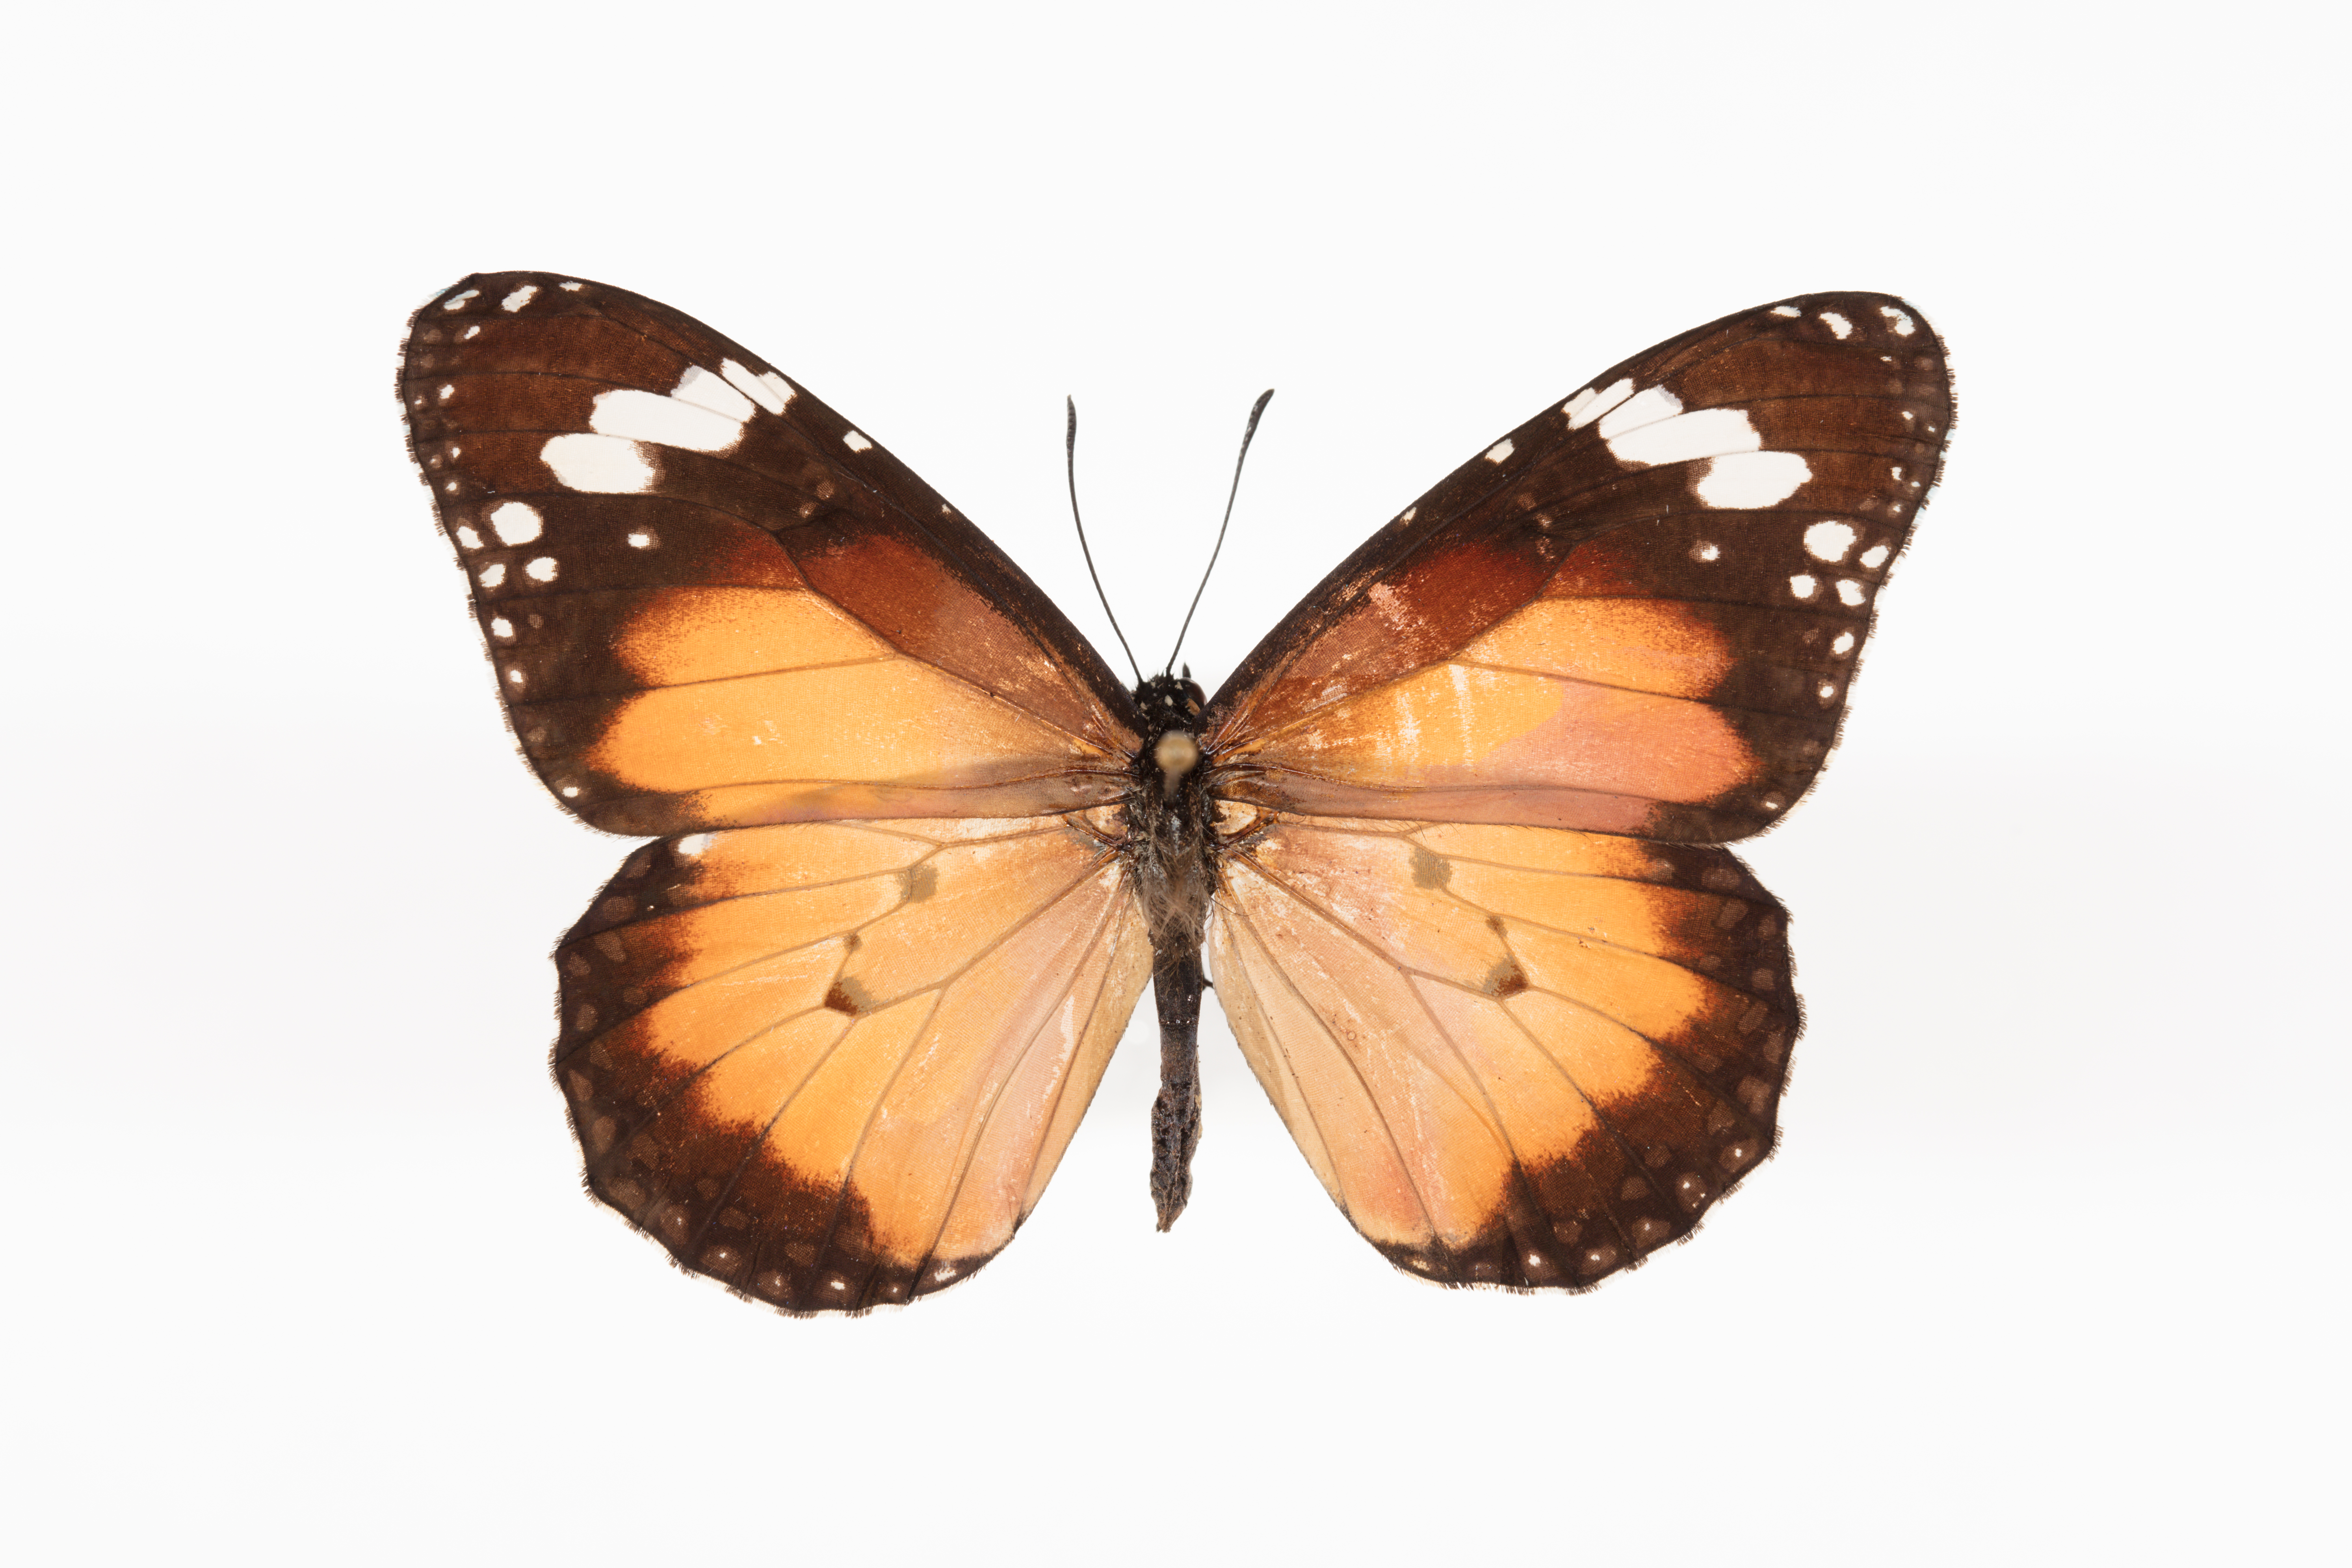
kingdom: Animalia
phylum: Arthropoda
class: Insecta
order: Lepidoptera
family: Nymphalidae
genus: Danaus
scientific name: Danaus chrysippus
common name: Plain tiger
